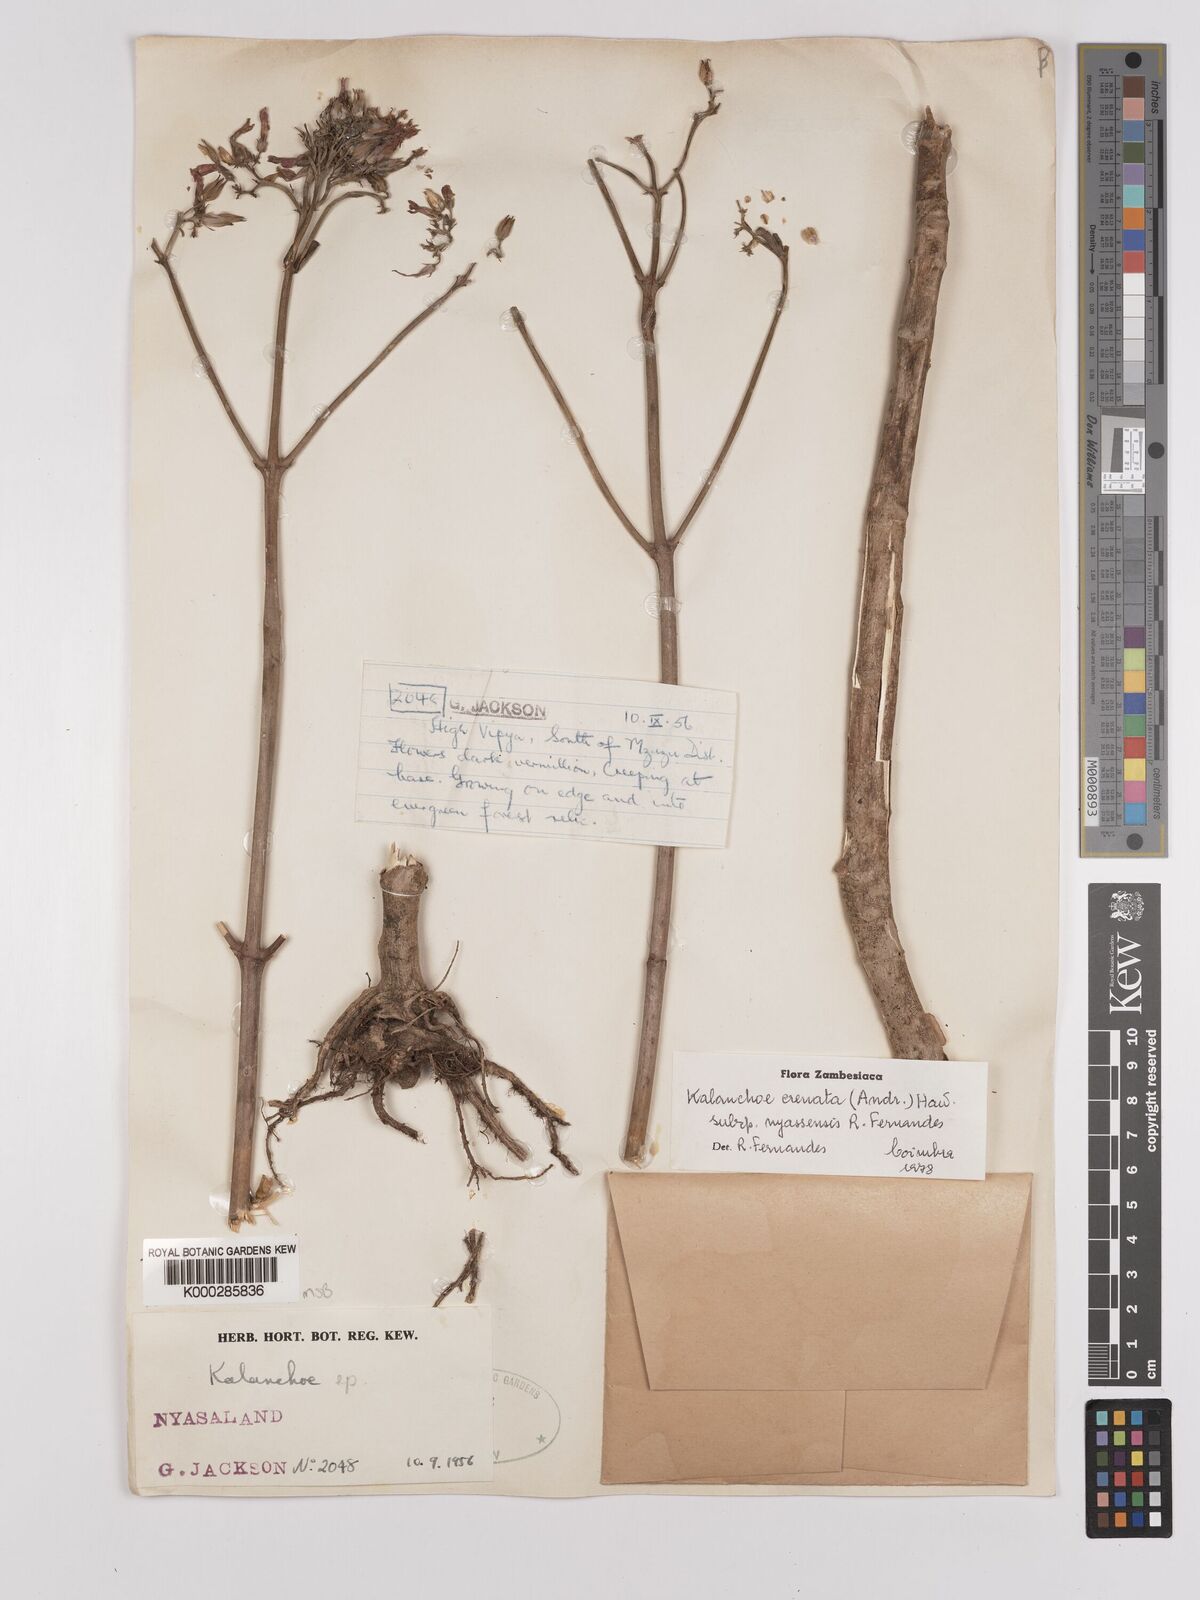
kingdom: Plantae
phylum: Tracheophyta
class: Magnoliopsida
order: Saxifragales
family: Crassulaceae
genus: Kalanchoe
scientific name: Kalanchoe crenata
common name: Neverdie
